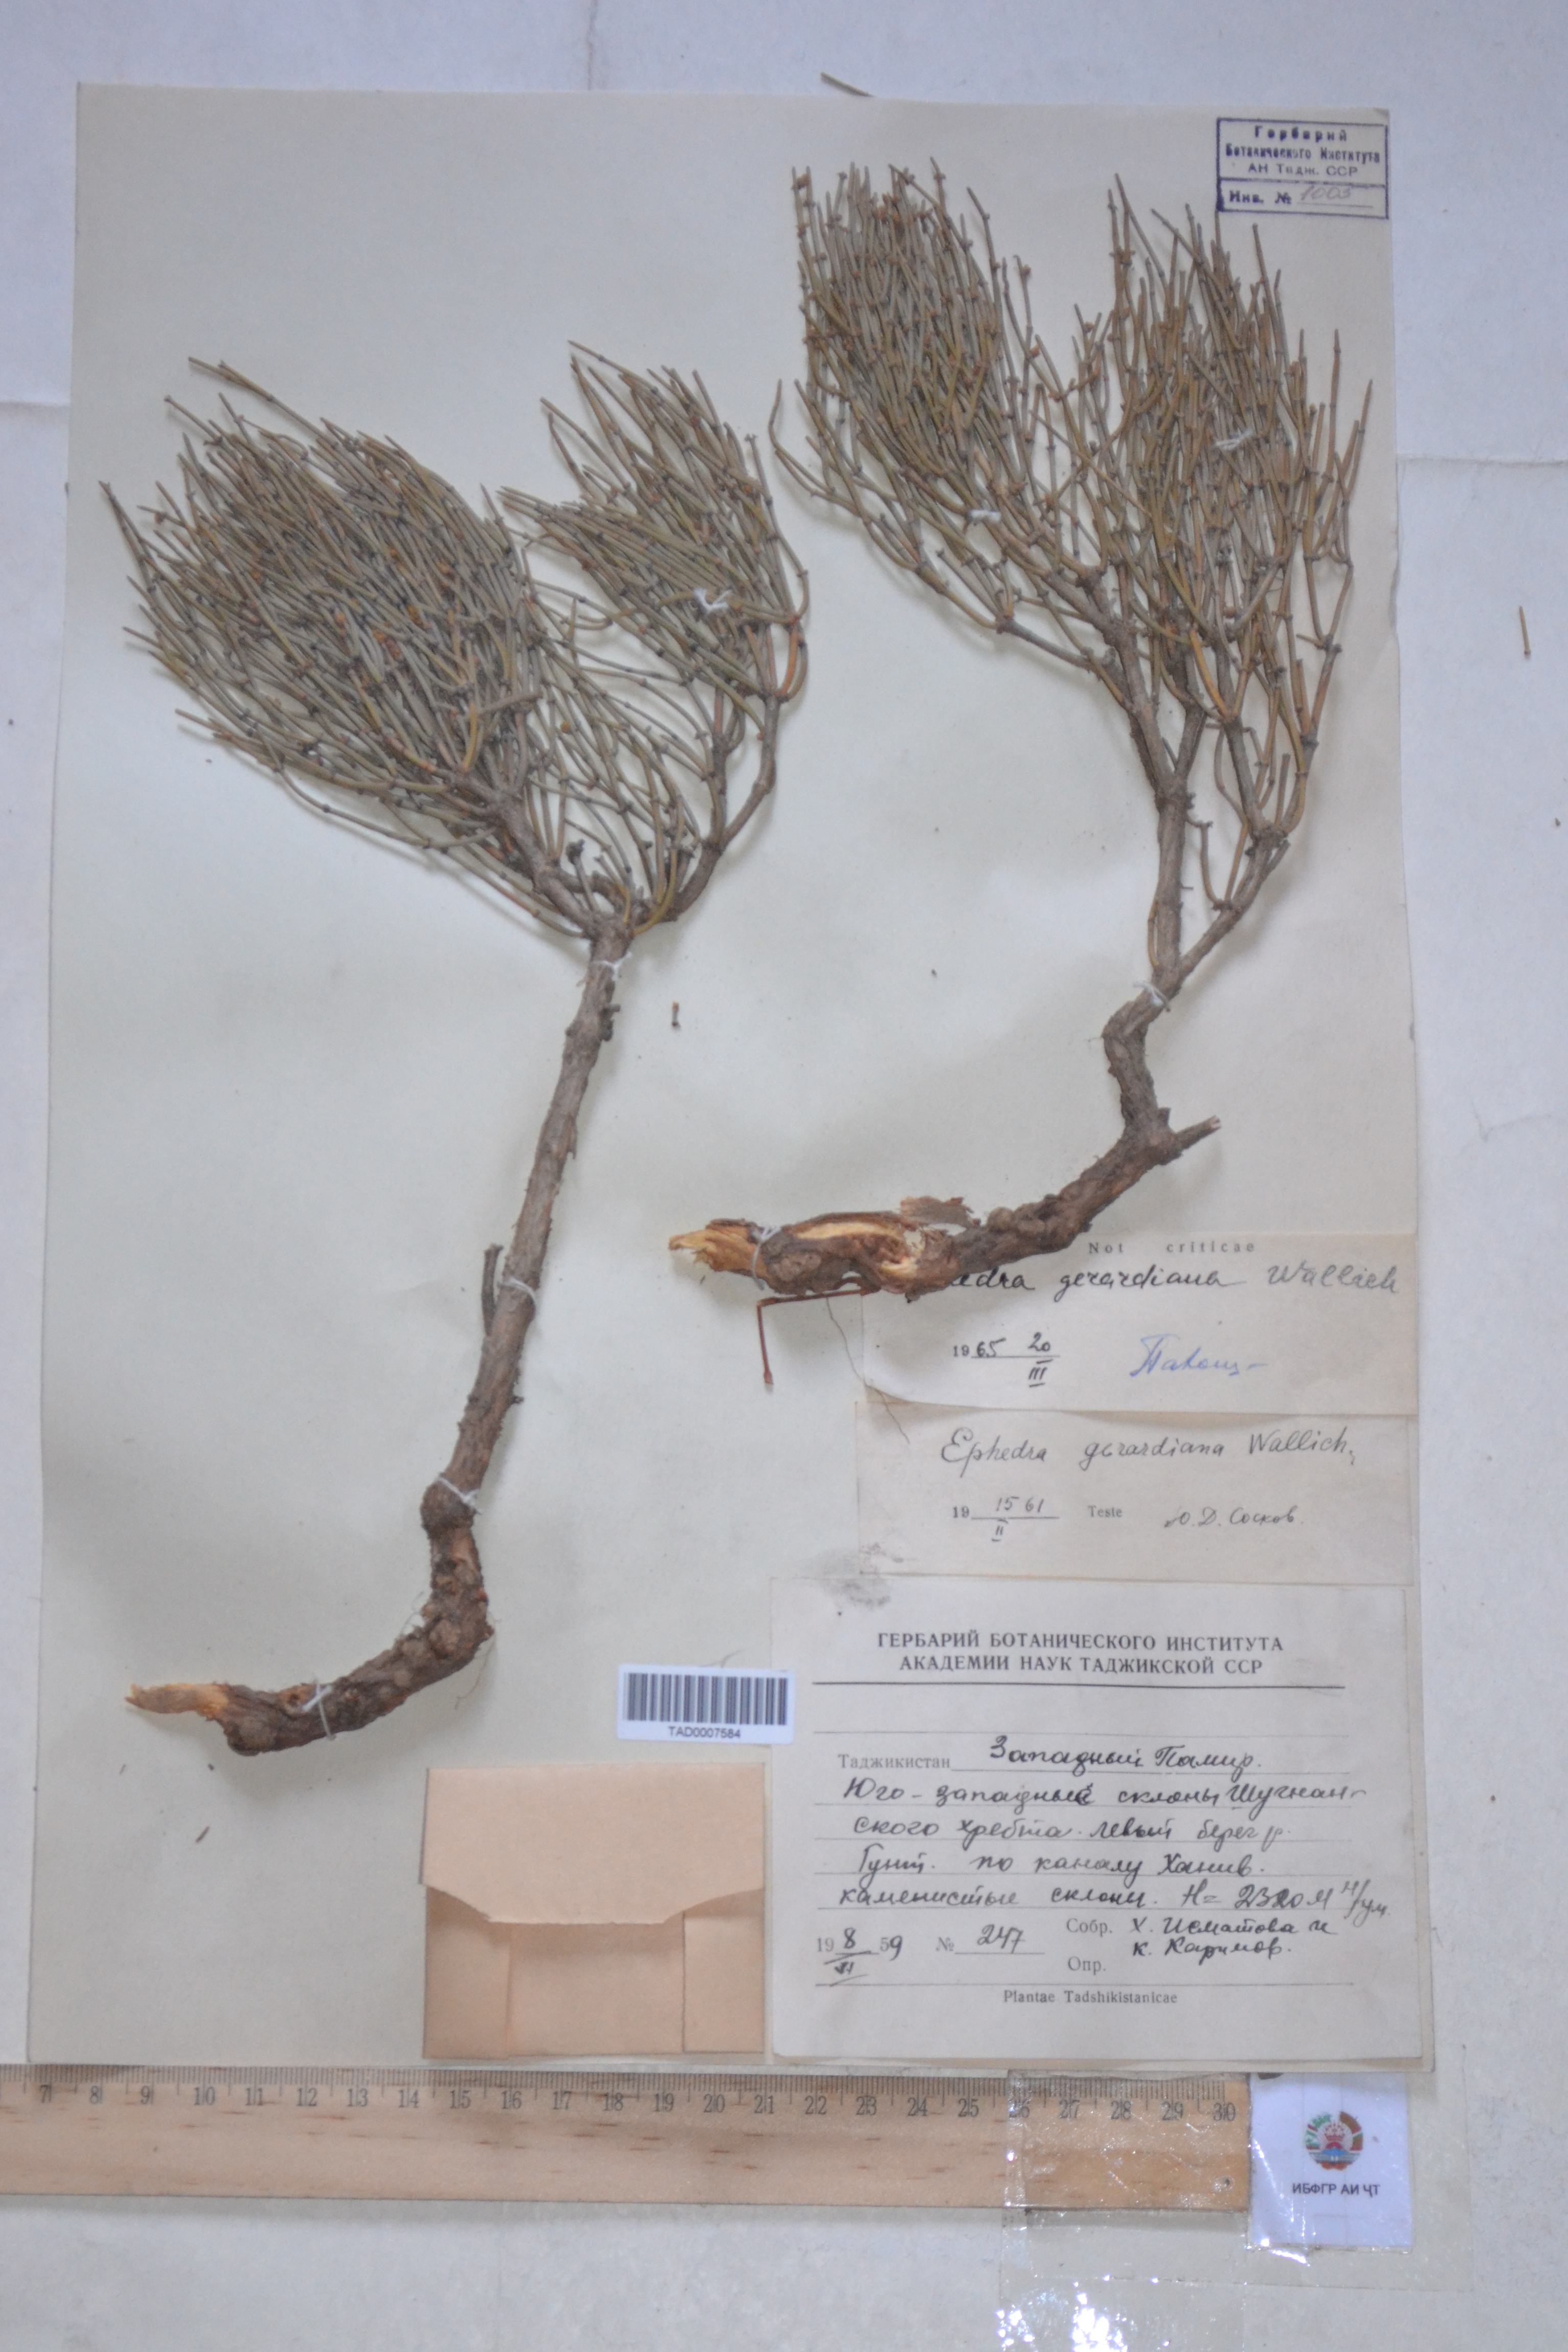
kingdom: Plantae
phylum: Tracheophyta
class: Gnetopsida
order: Ephedrales
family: Ephedraceae
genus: Ephedra
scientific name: Ephedra gerardiana
